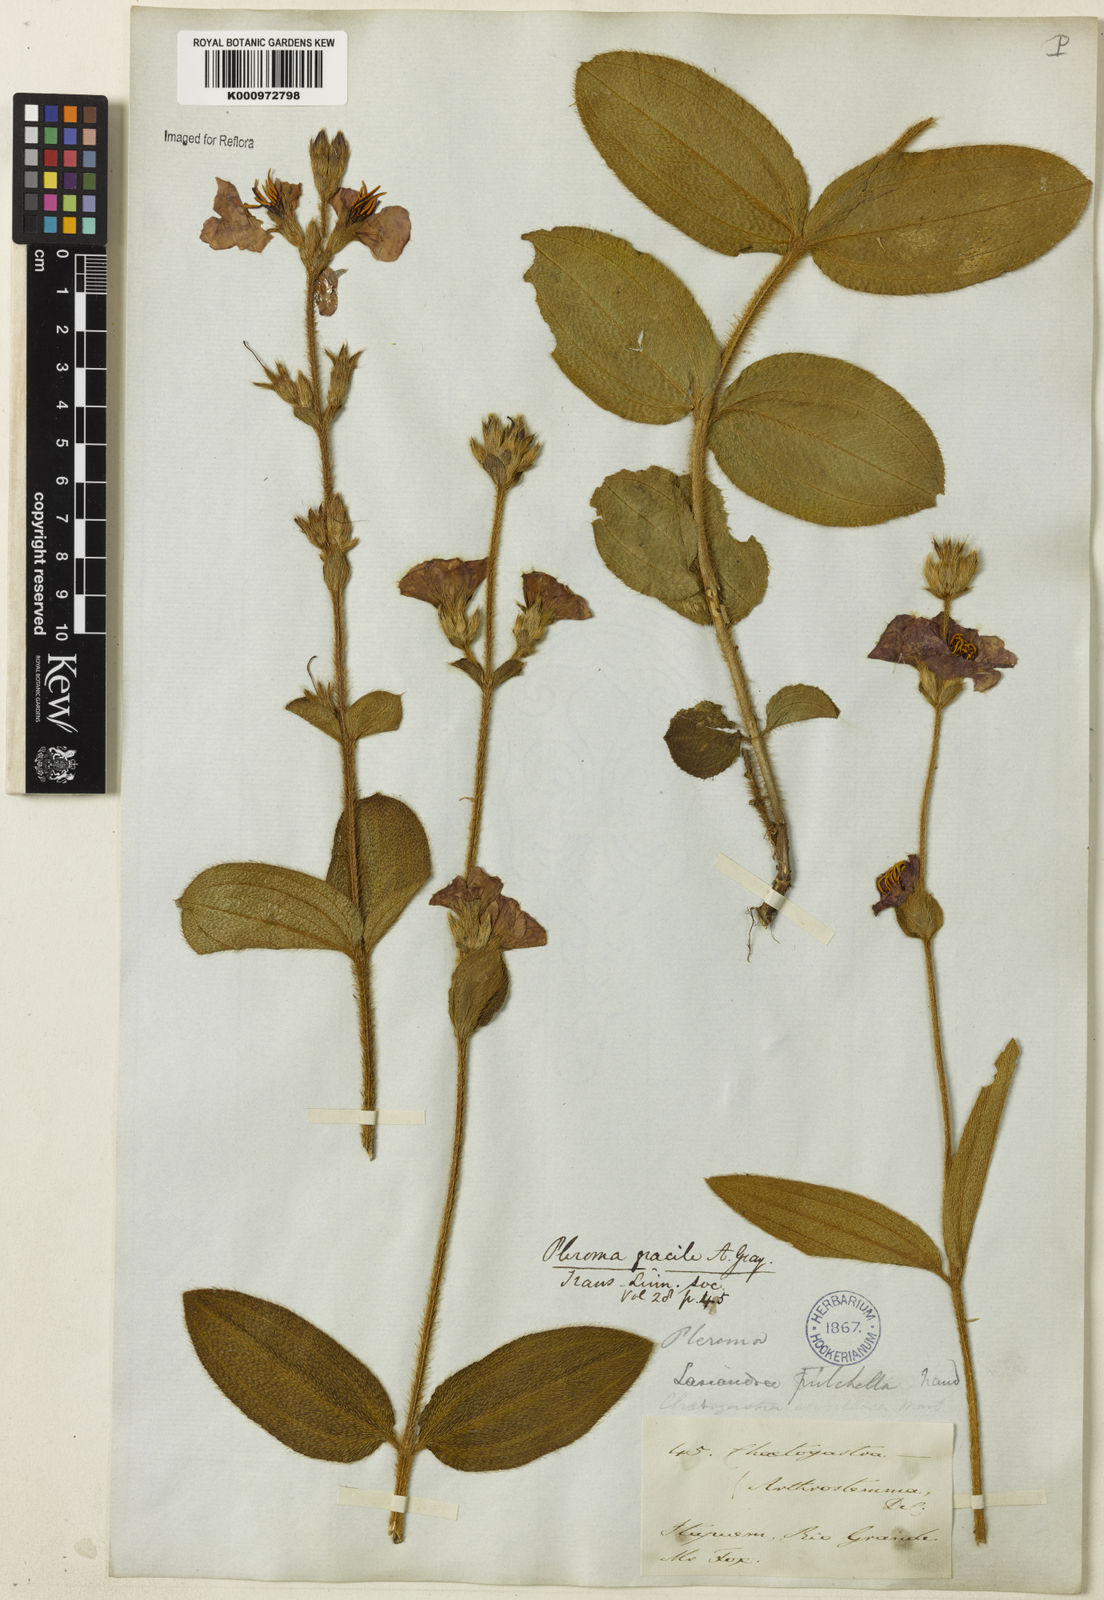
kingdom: Plantae
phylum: Tracheophyta
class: Magnoliopsida
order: Myrtales
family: Melastomataceae
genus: Chaetogastra
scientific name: Chaetogastra gracilis
